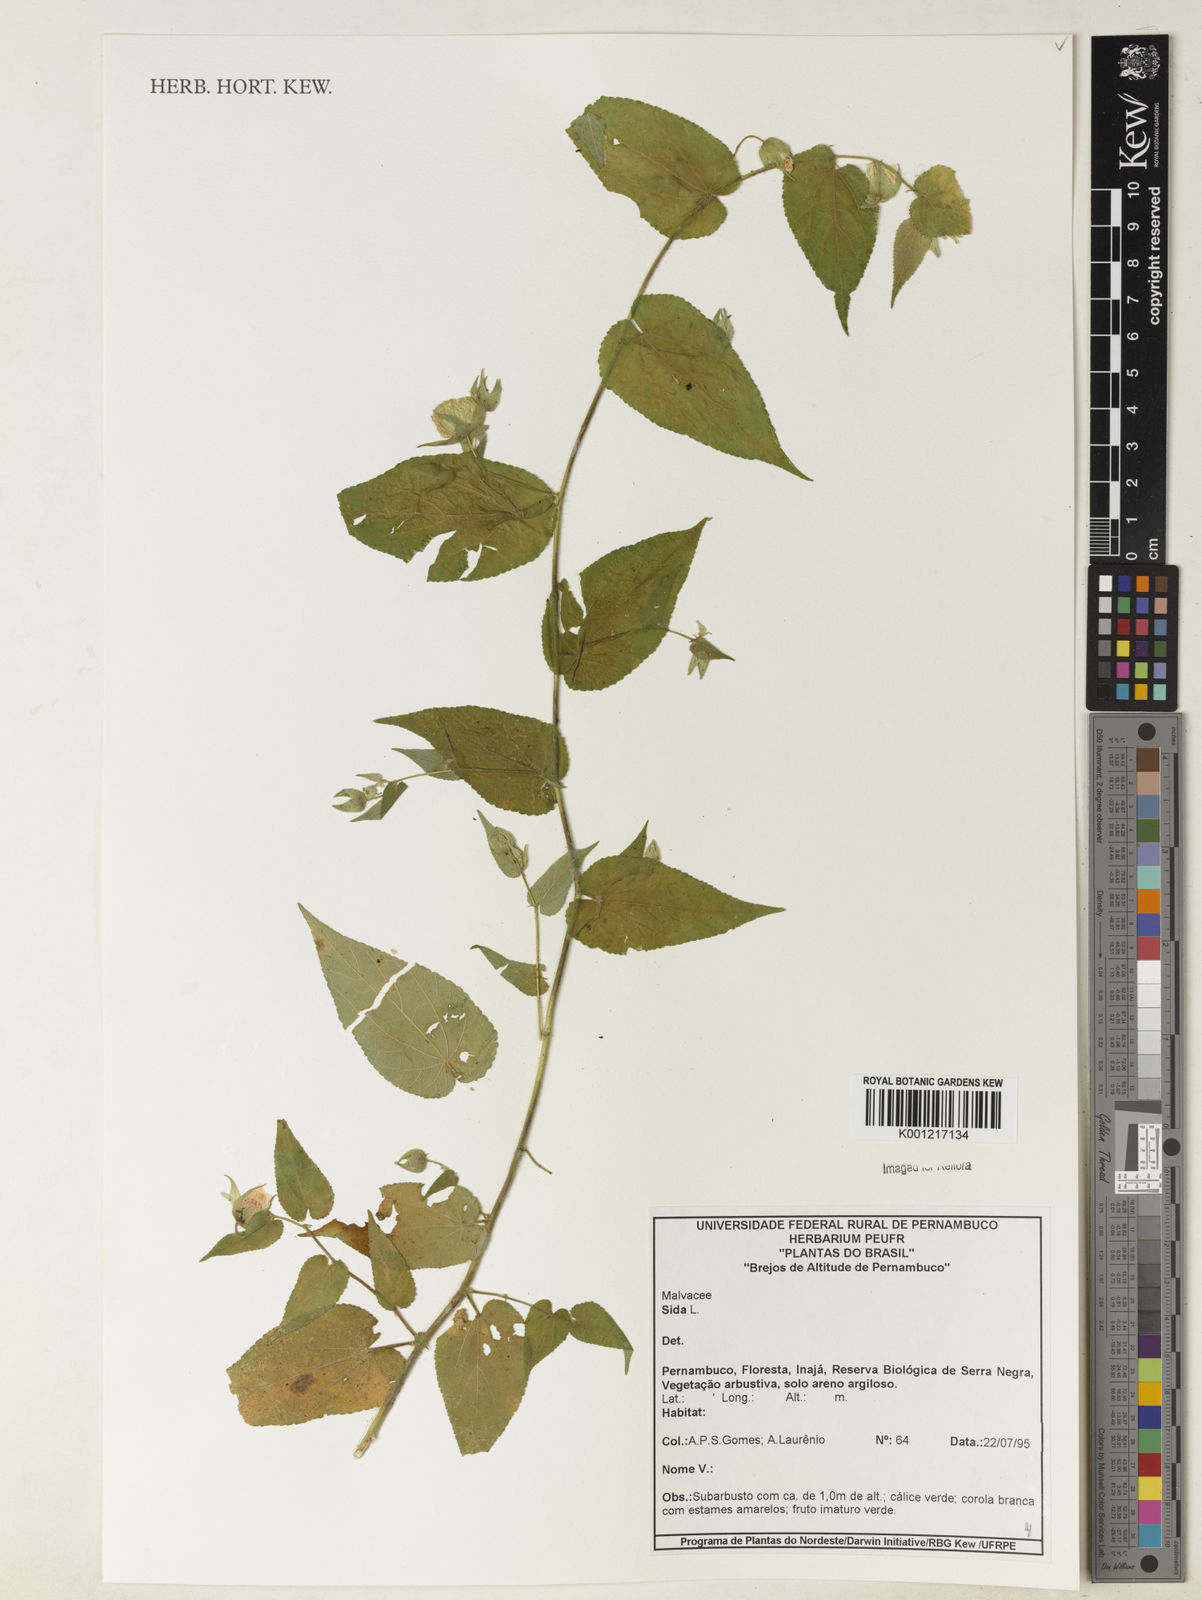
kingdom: Plantae
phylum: Tracheophyta
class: Magnoliopsida
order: Malvales
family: Malvaceae
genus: Sida
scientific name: Sida
